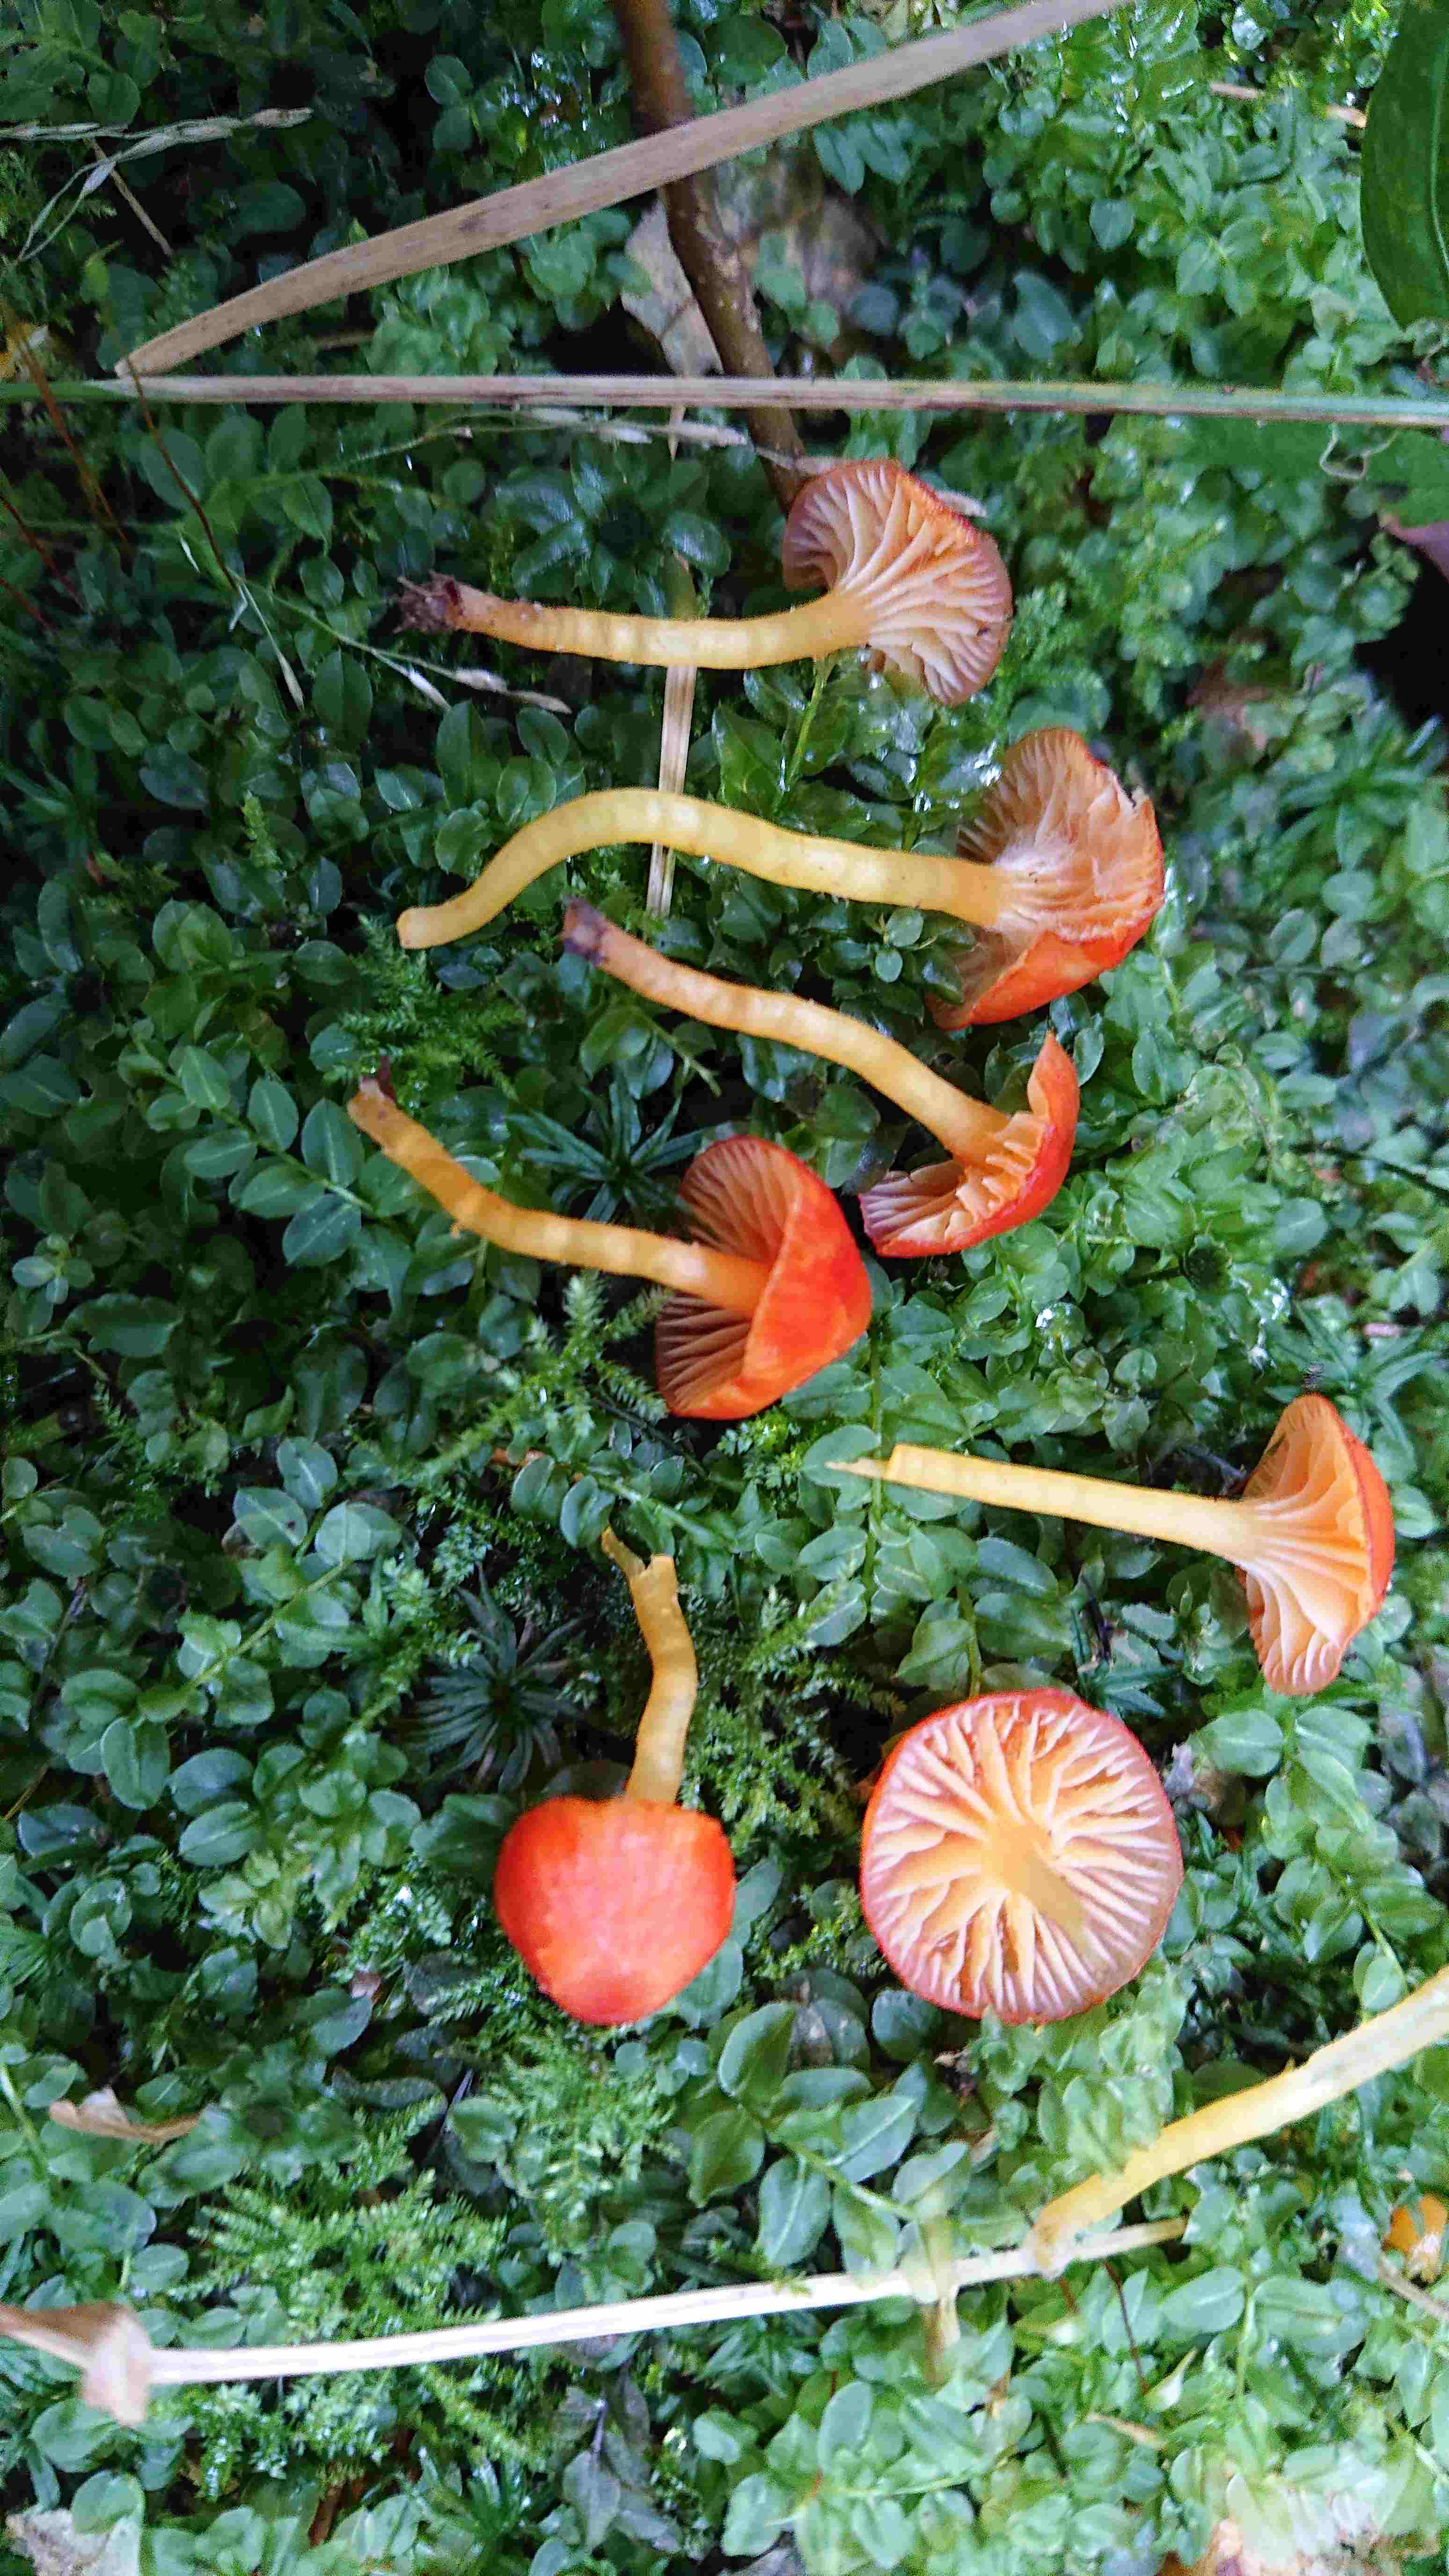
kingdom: Fungi
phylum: Basidiomycota
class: Agaricomycetes
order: Agaricales
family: Hygrophoraceae
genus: Hygrocybe
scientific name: Hygrocybe insipida
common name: liden vokshat
